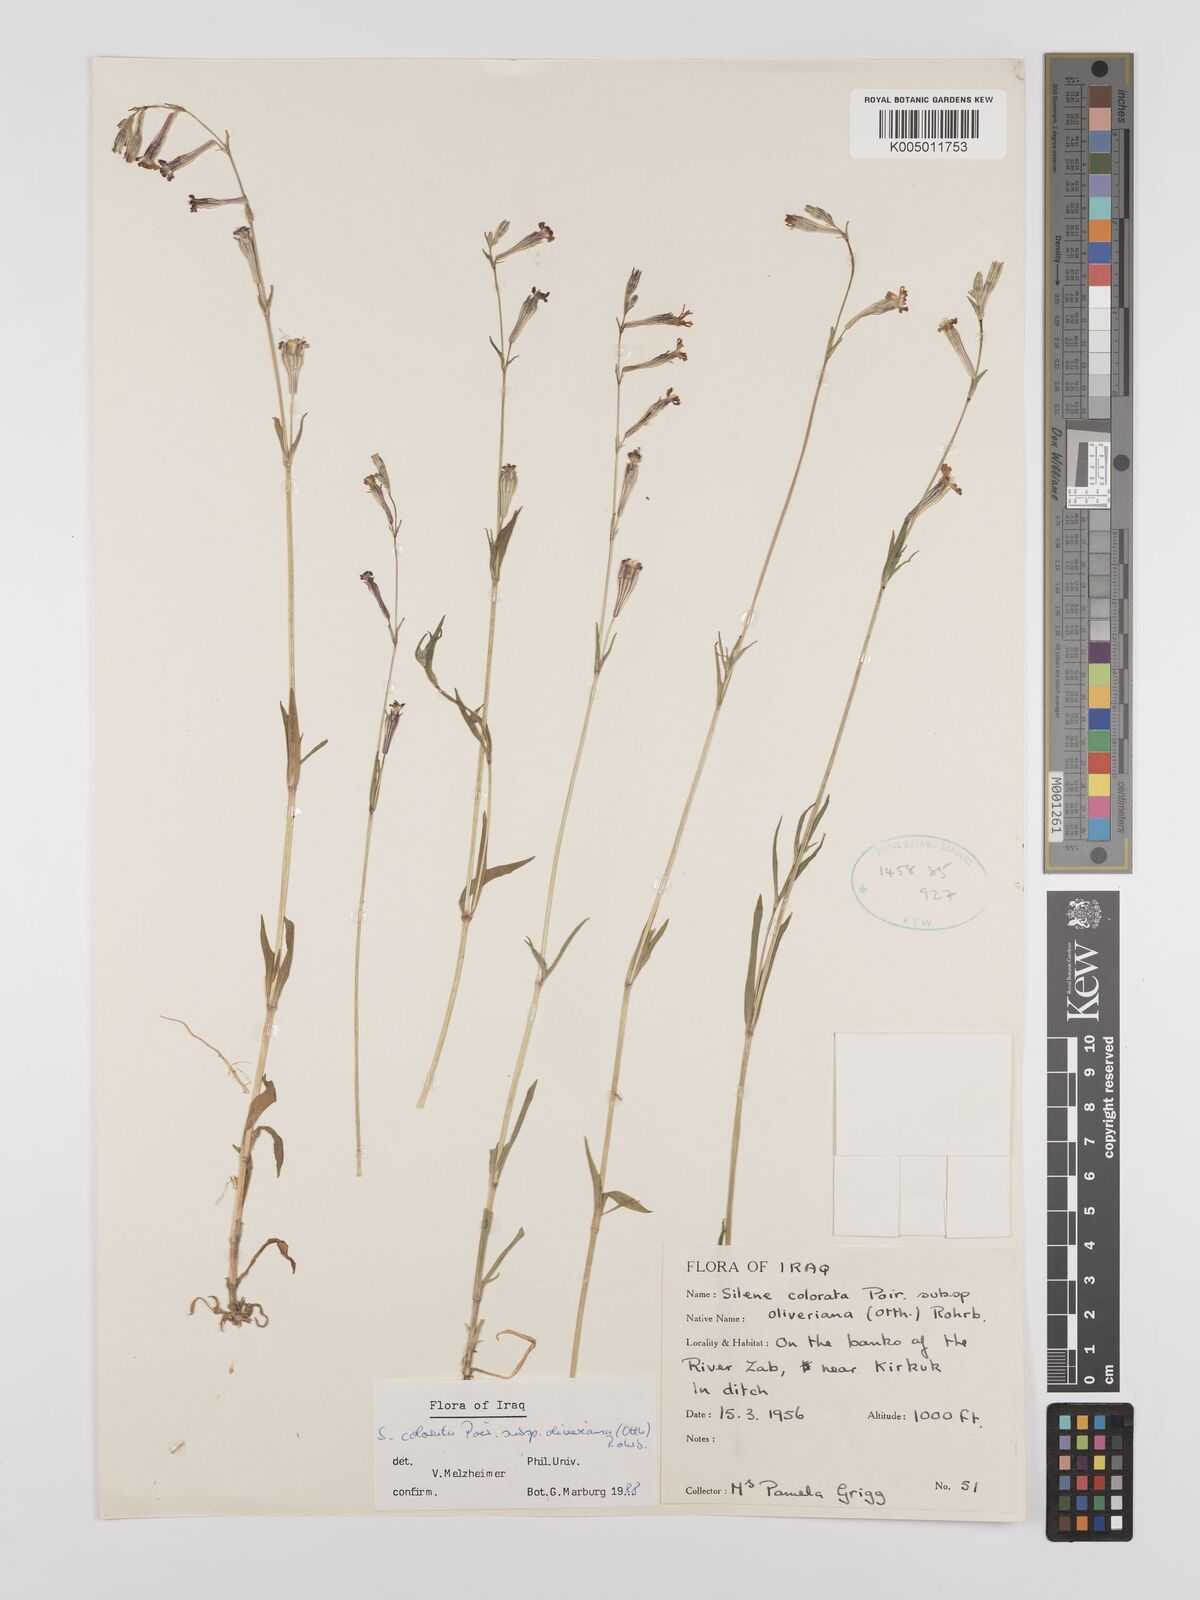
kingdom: Plantae
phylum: Tracheophyta
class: Magnoliopsida
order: Caryophyllales
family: Caryophyllaceae
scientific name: Caryophyllaceae
